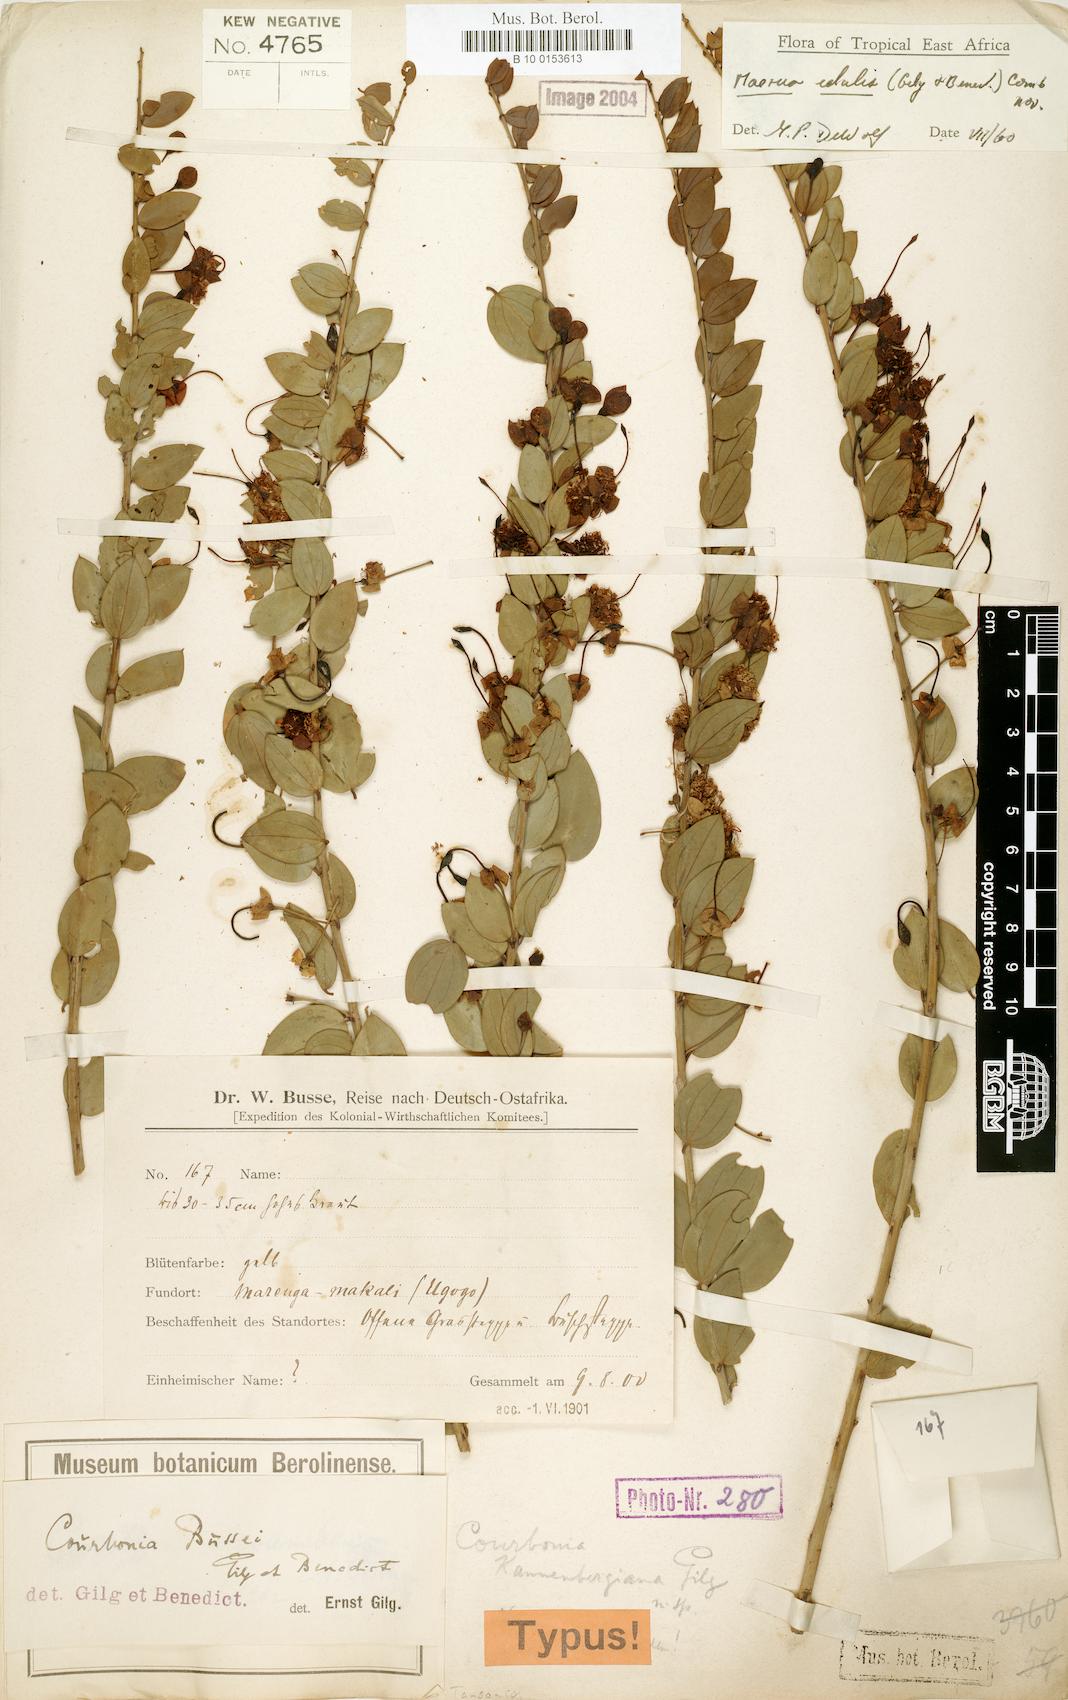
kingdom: Plantae
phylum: Tracheophyta
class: Magnoliopsida
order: Brassicales
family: Capparaceae
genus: Maerua
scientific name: Maerua edulis
